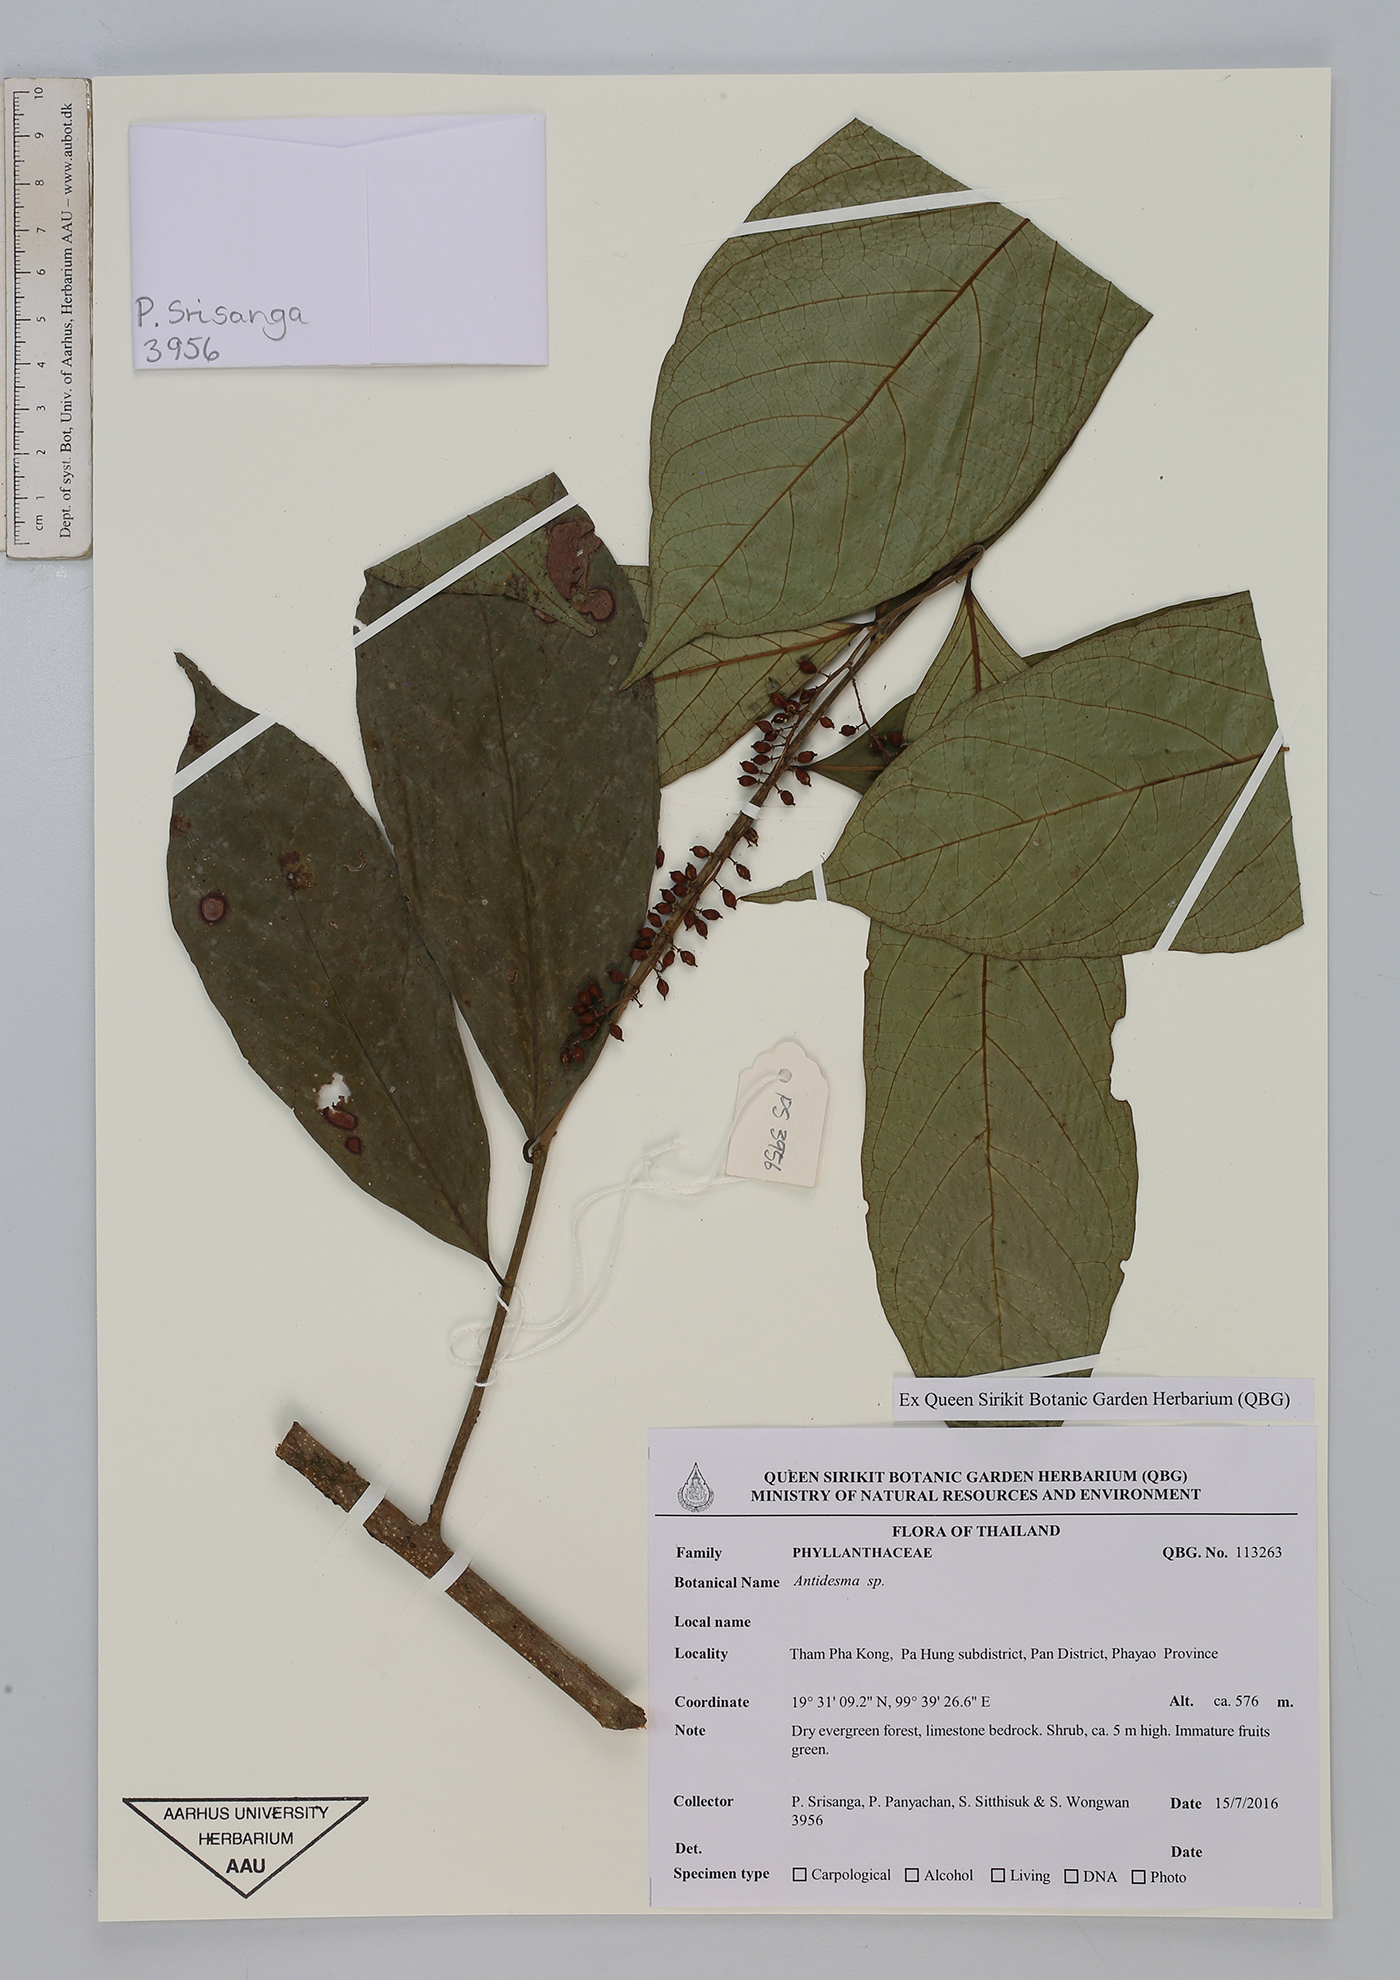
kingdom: Plantae
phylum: Tracheophyta
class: Magnoliopsida
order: Malpighiales
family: Phyllanthaceae
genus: Antidesma
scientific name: Antidesma
